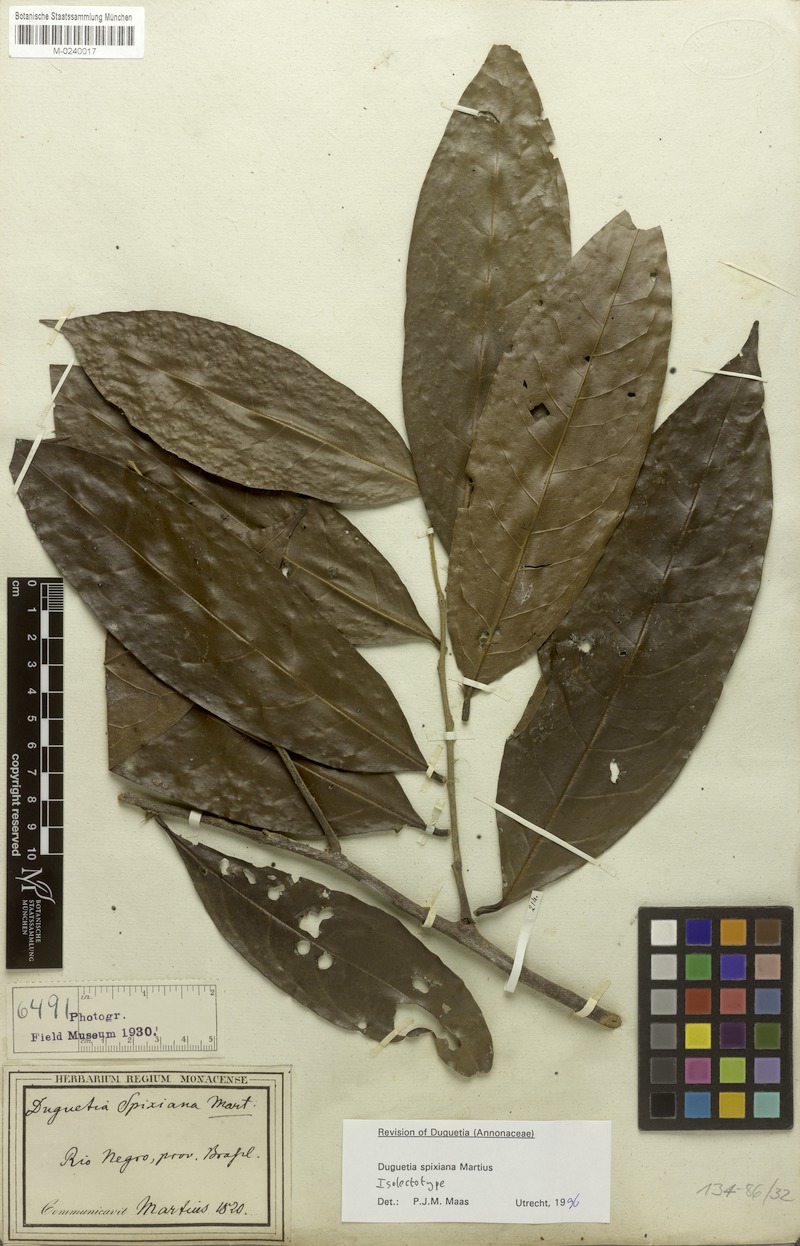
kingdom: Plantae
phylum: Tracheophyta
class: Magnoliopsida
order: Magnoliales
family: Annonaceae
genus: Duguetia
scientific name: Duguetia spixiana
